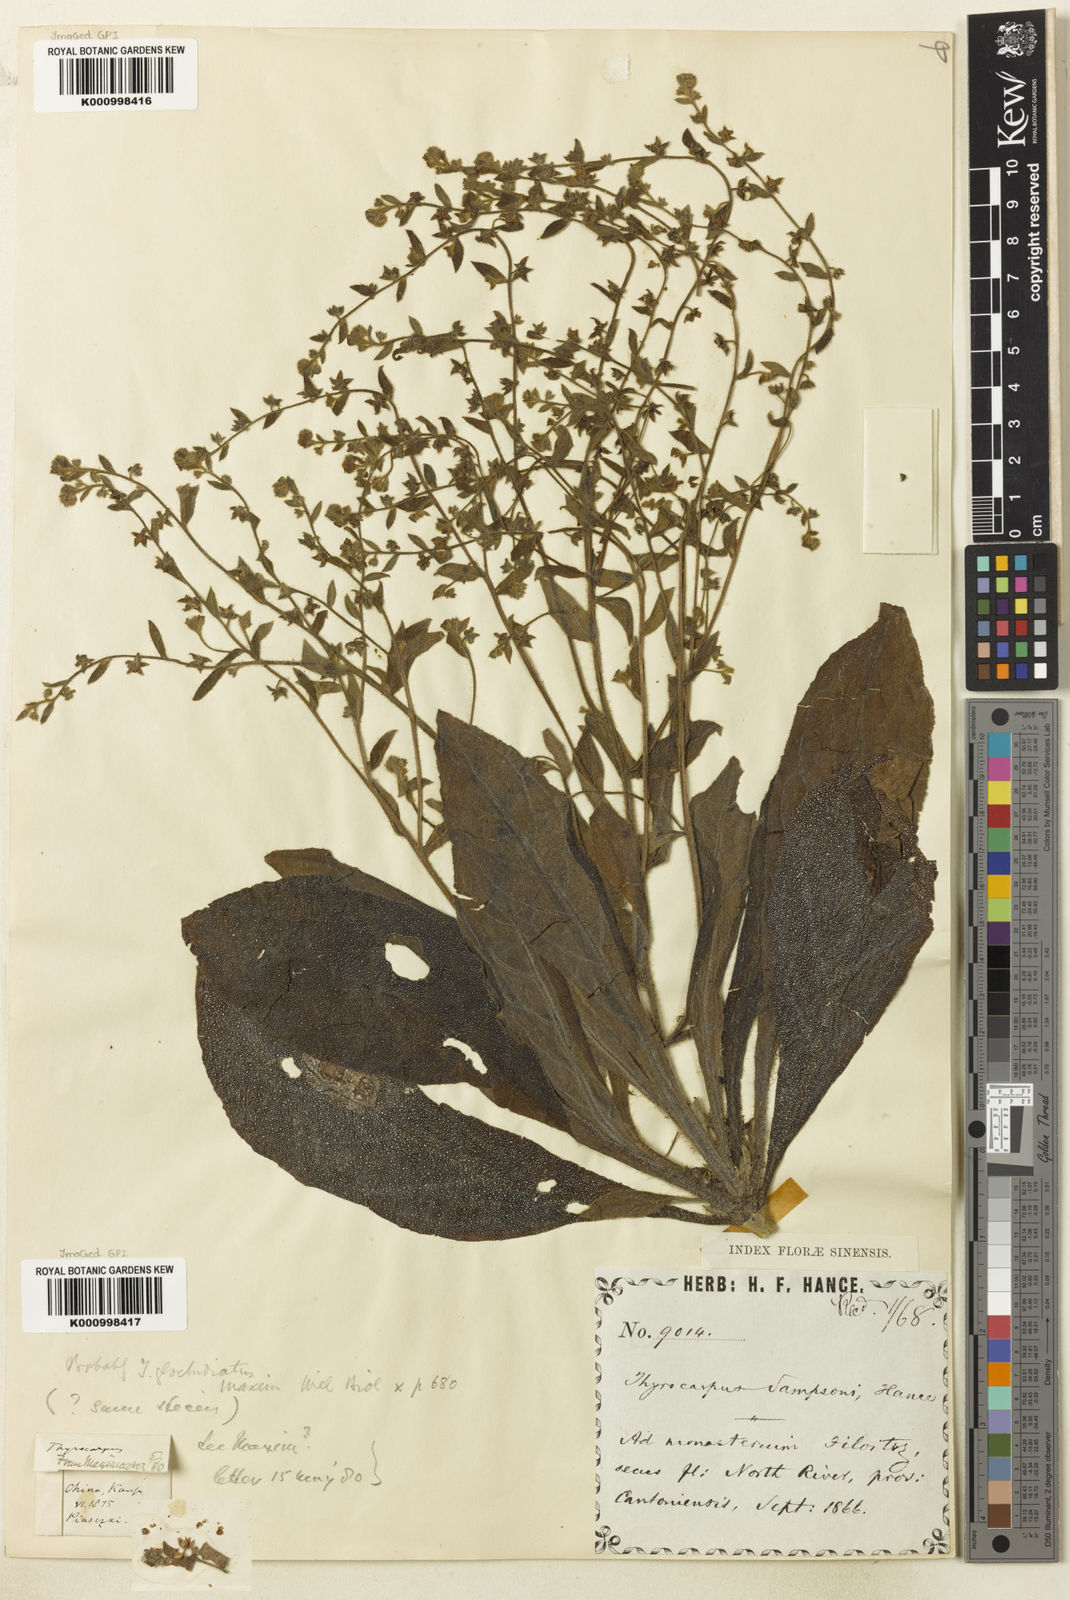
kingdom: Plantae
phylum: Tracheophyta
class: Magnoliopsida
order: Boraginales
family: Boraginaceae
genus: Thyrocarpus
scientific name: Thyrocarpus sampsonii
